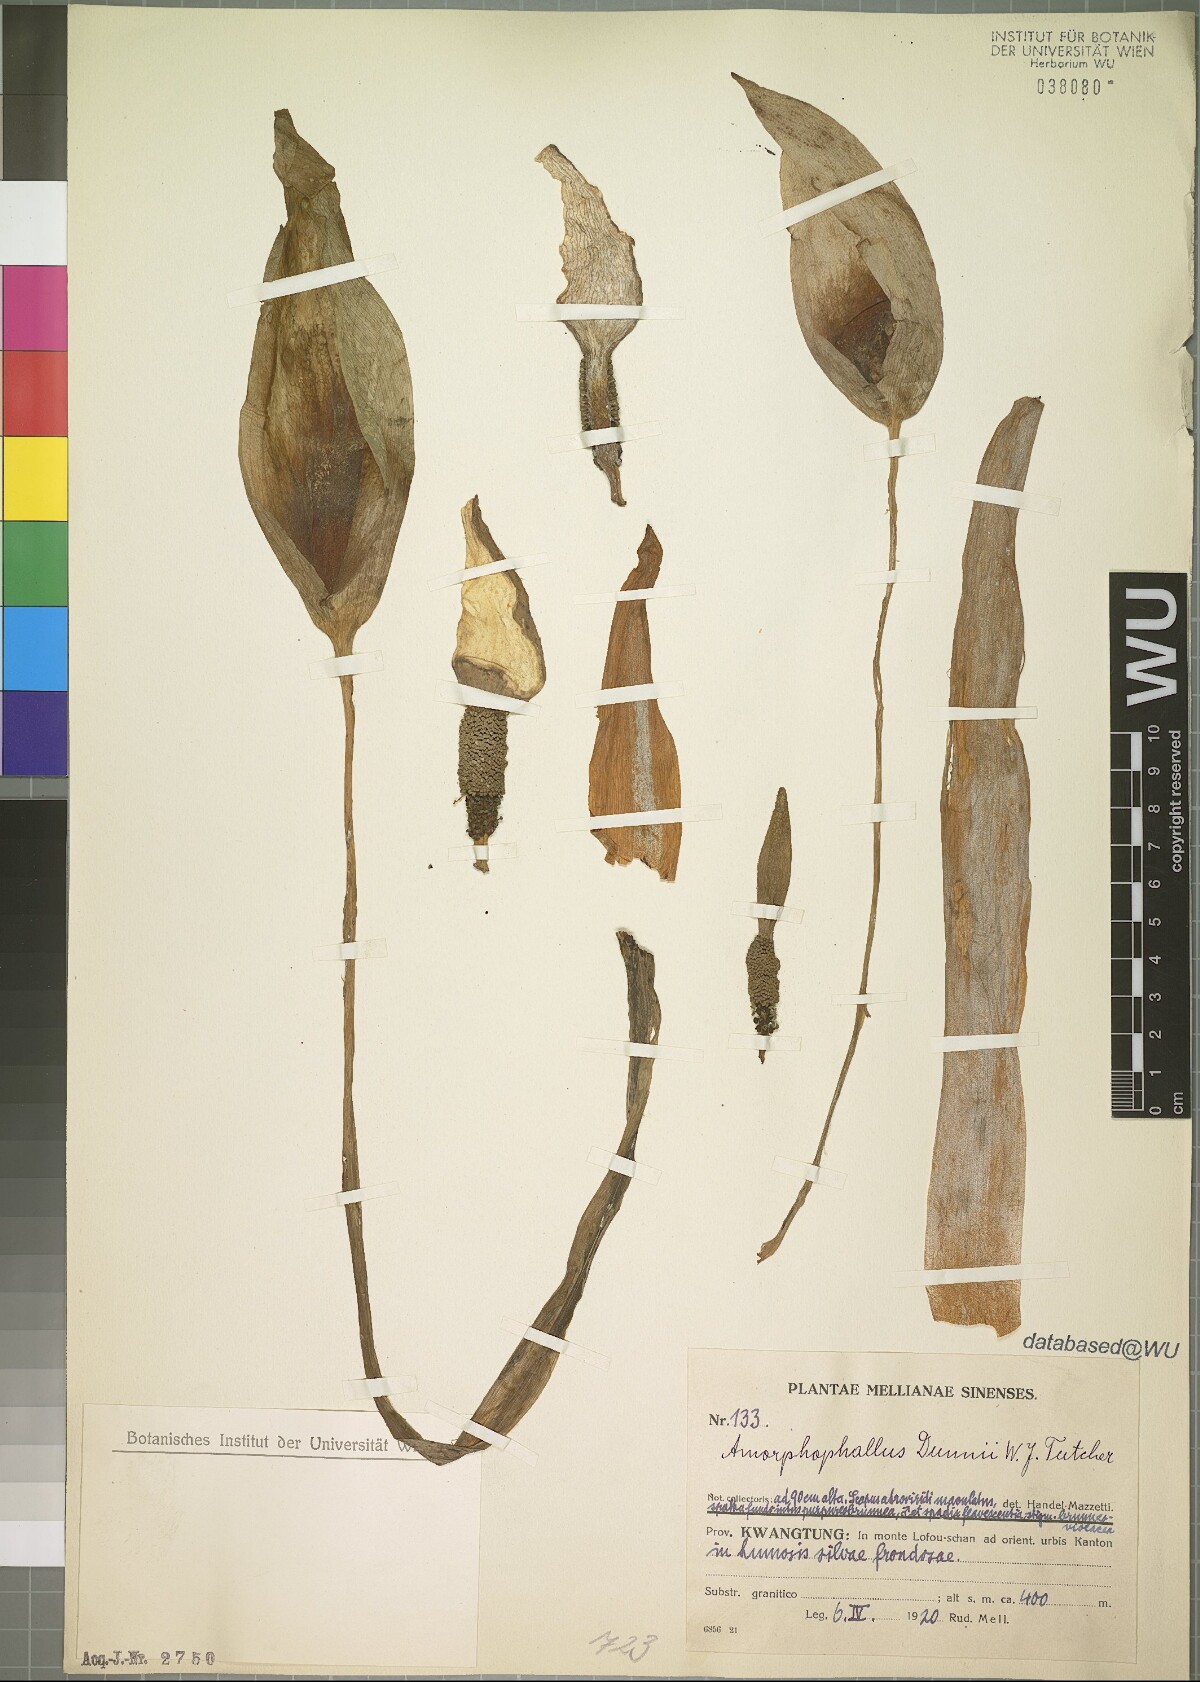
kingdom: Plantae
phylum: Tracheophyta
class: Liliopsida
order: Alismatales
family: Araceae
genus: Amorphophallus
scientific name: Amorphophallus dunnii
